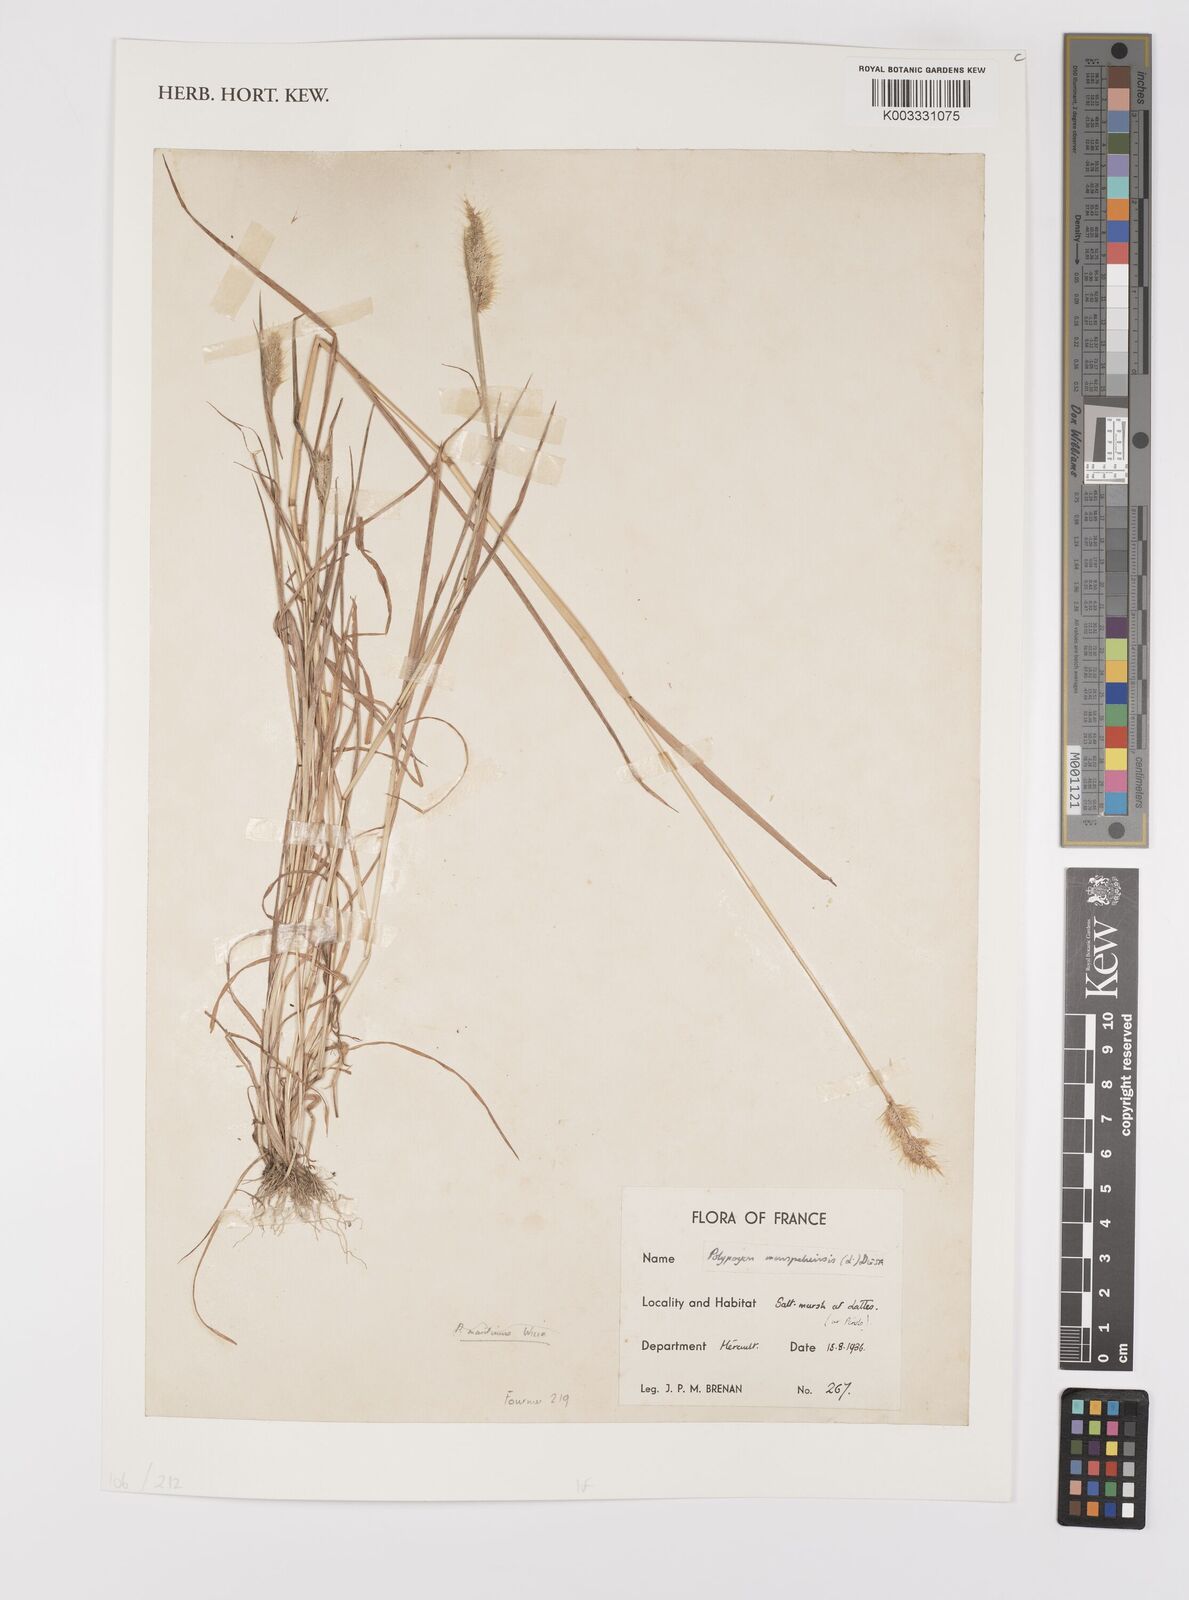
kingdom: Plantae
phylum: Tracheophyta
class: Liliopsida
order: Poales
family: Poaceae
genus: Polypogon
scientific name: Polypogon monspeliensis
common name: Annual rabbitsfoot grass
